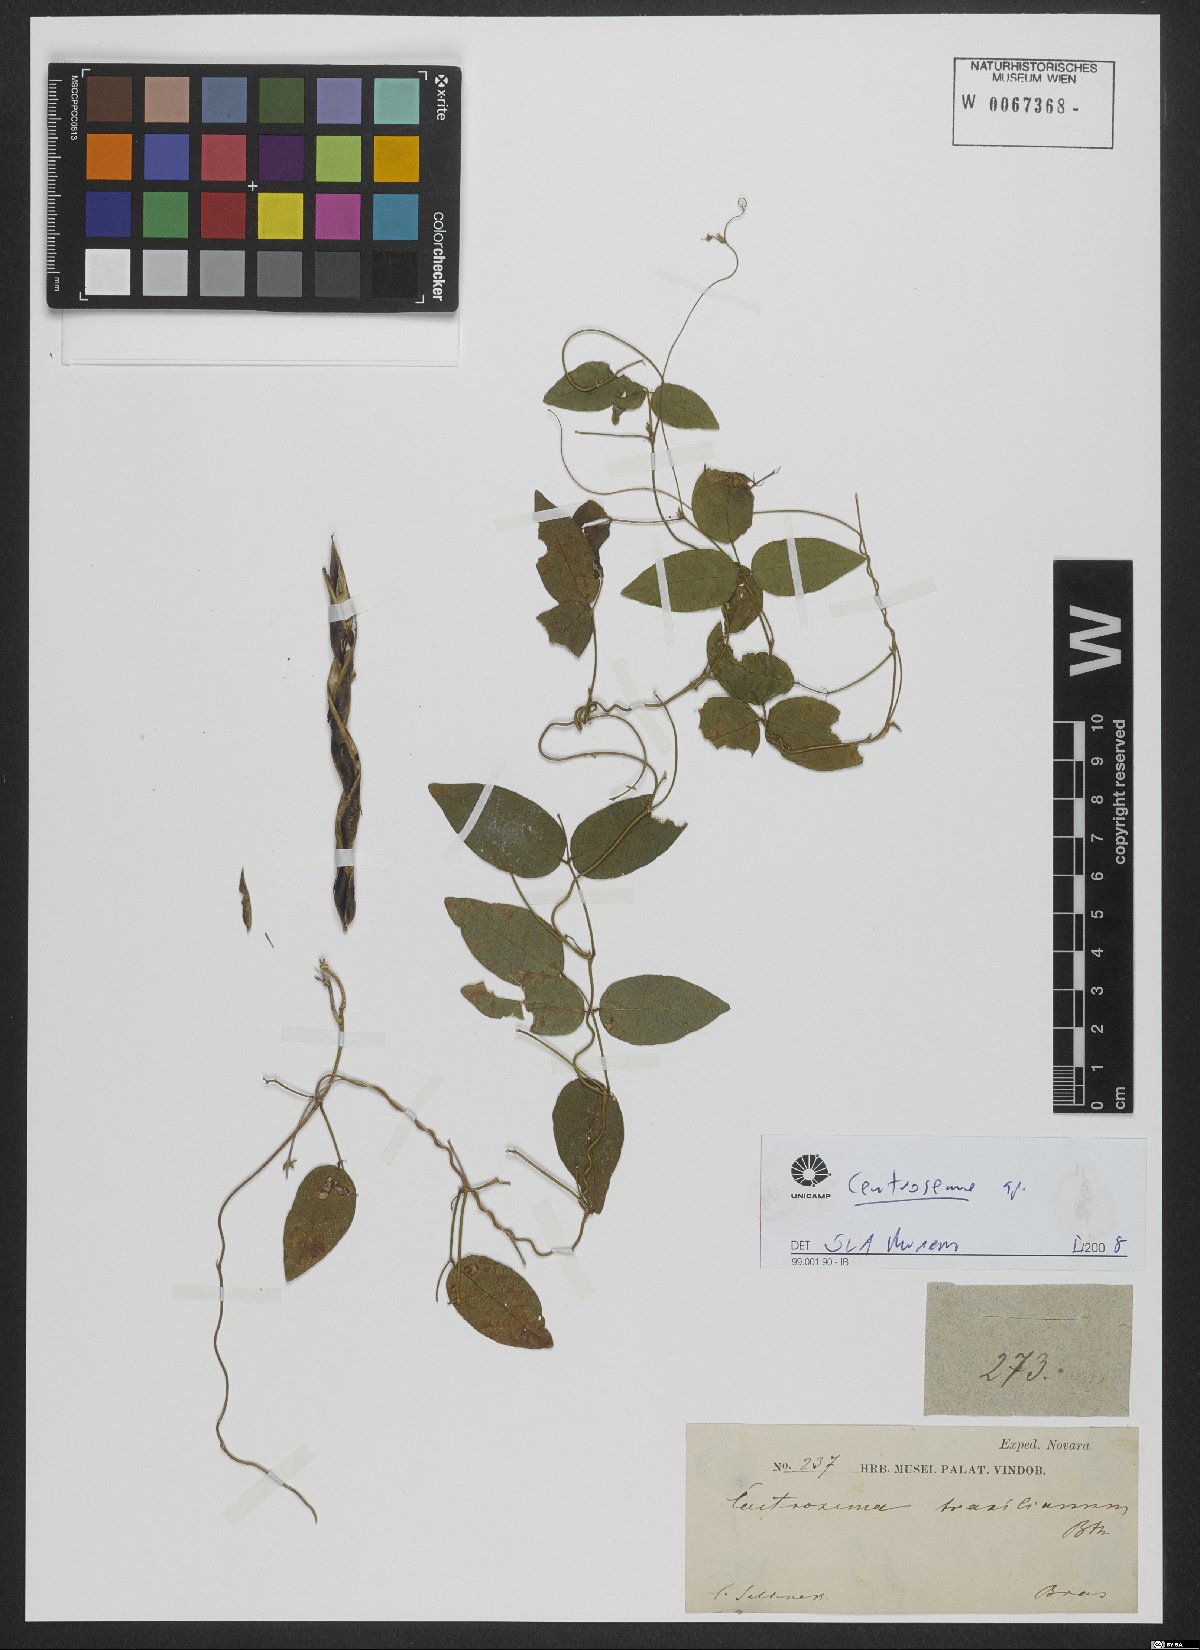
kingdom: Plantae
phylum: Tracheophyta
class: Magnoliopsida
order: Fabales
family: Fabaceae
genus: Centrosema
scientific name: Centrosema
